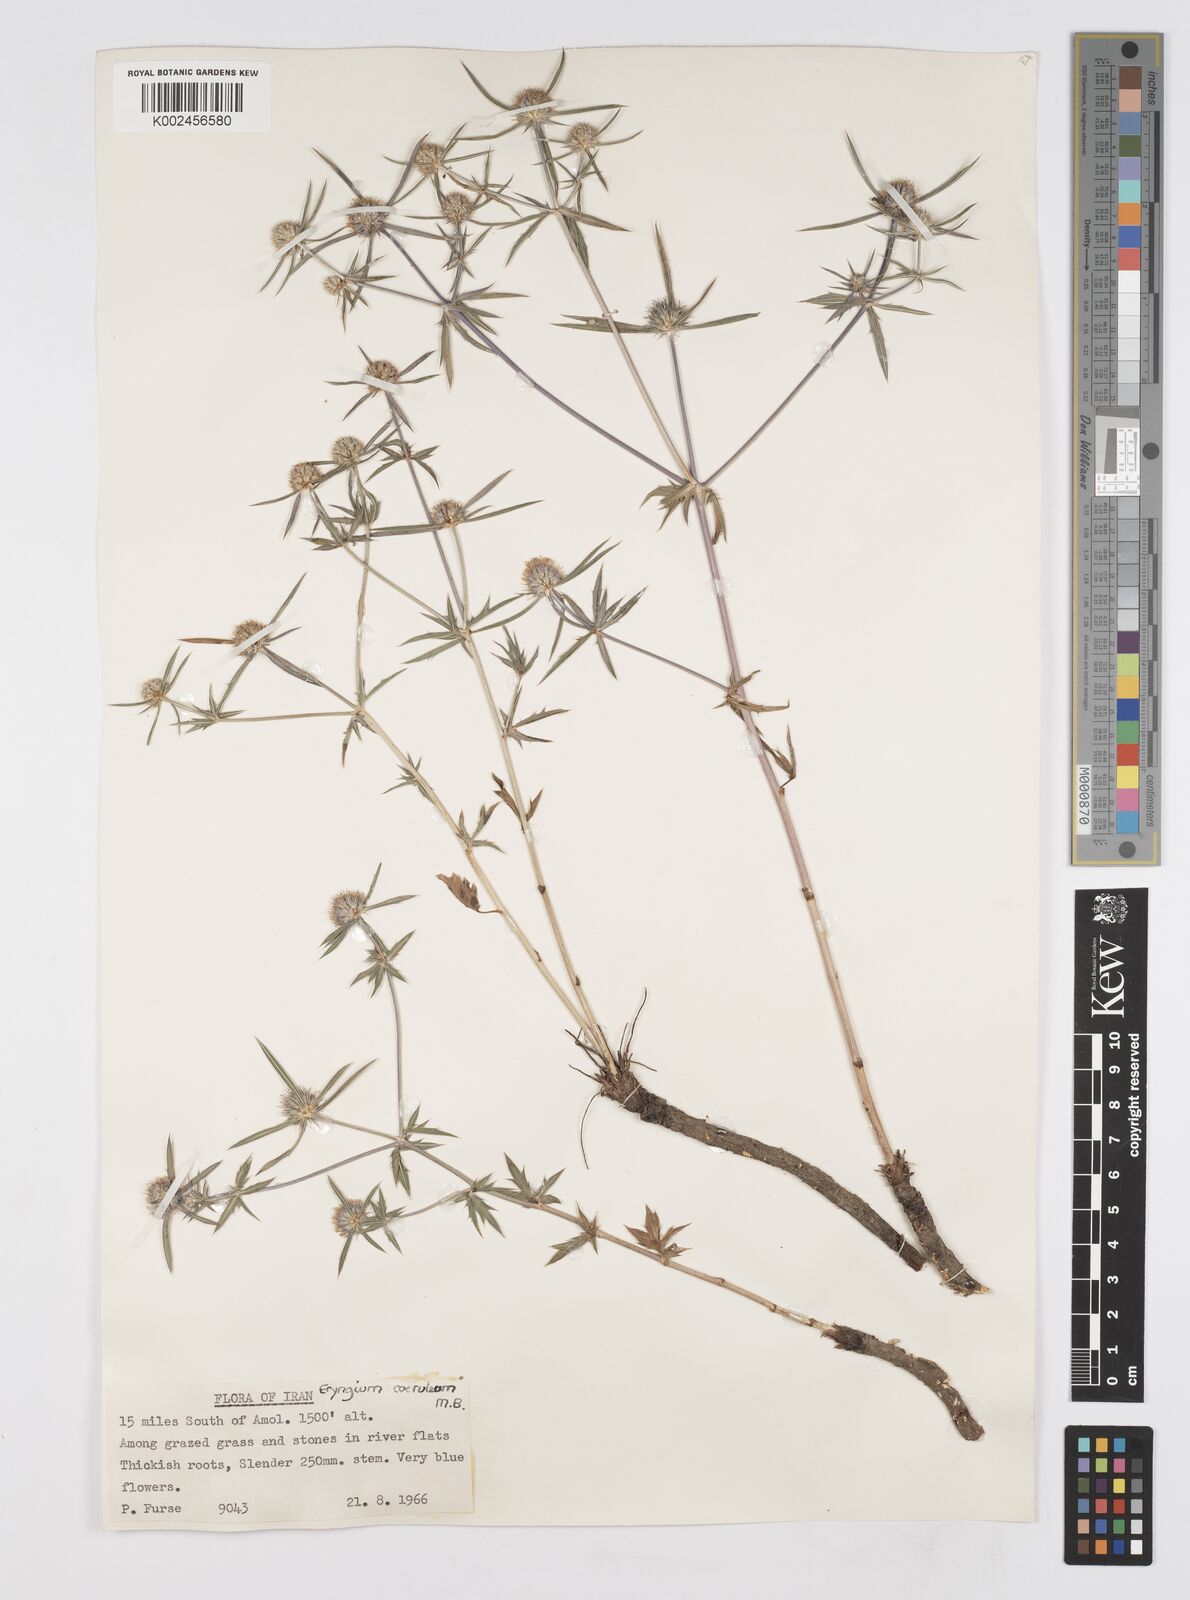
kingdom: Plantae
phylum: Tracheophyta
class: Magnoliopsida
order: Apiales
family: Apiaceae
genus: Eryngium
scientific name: Eryngium caeruleum
